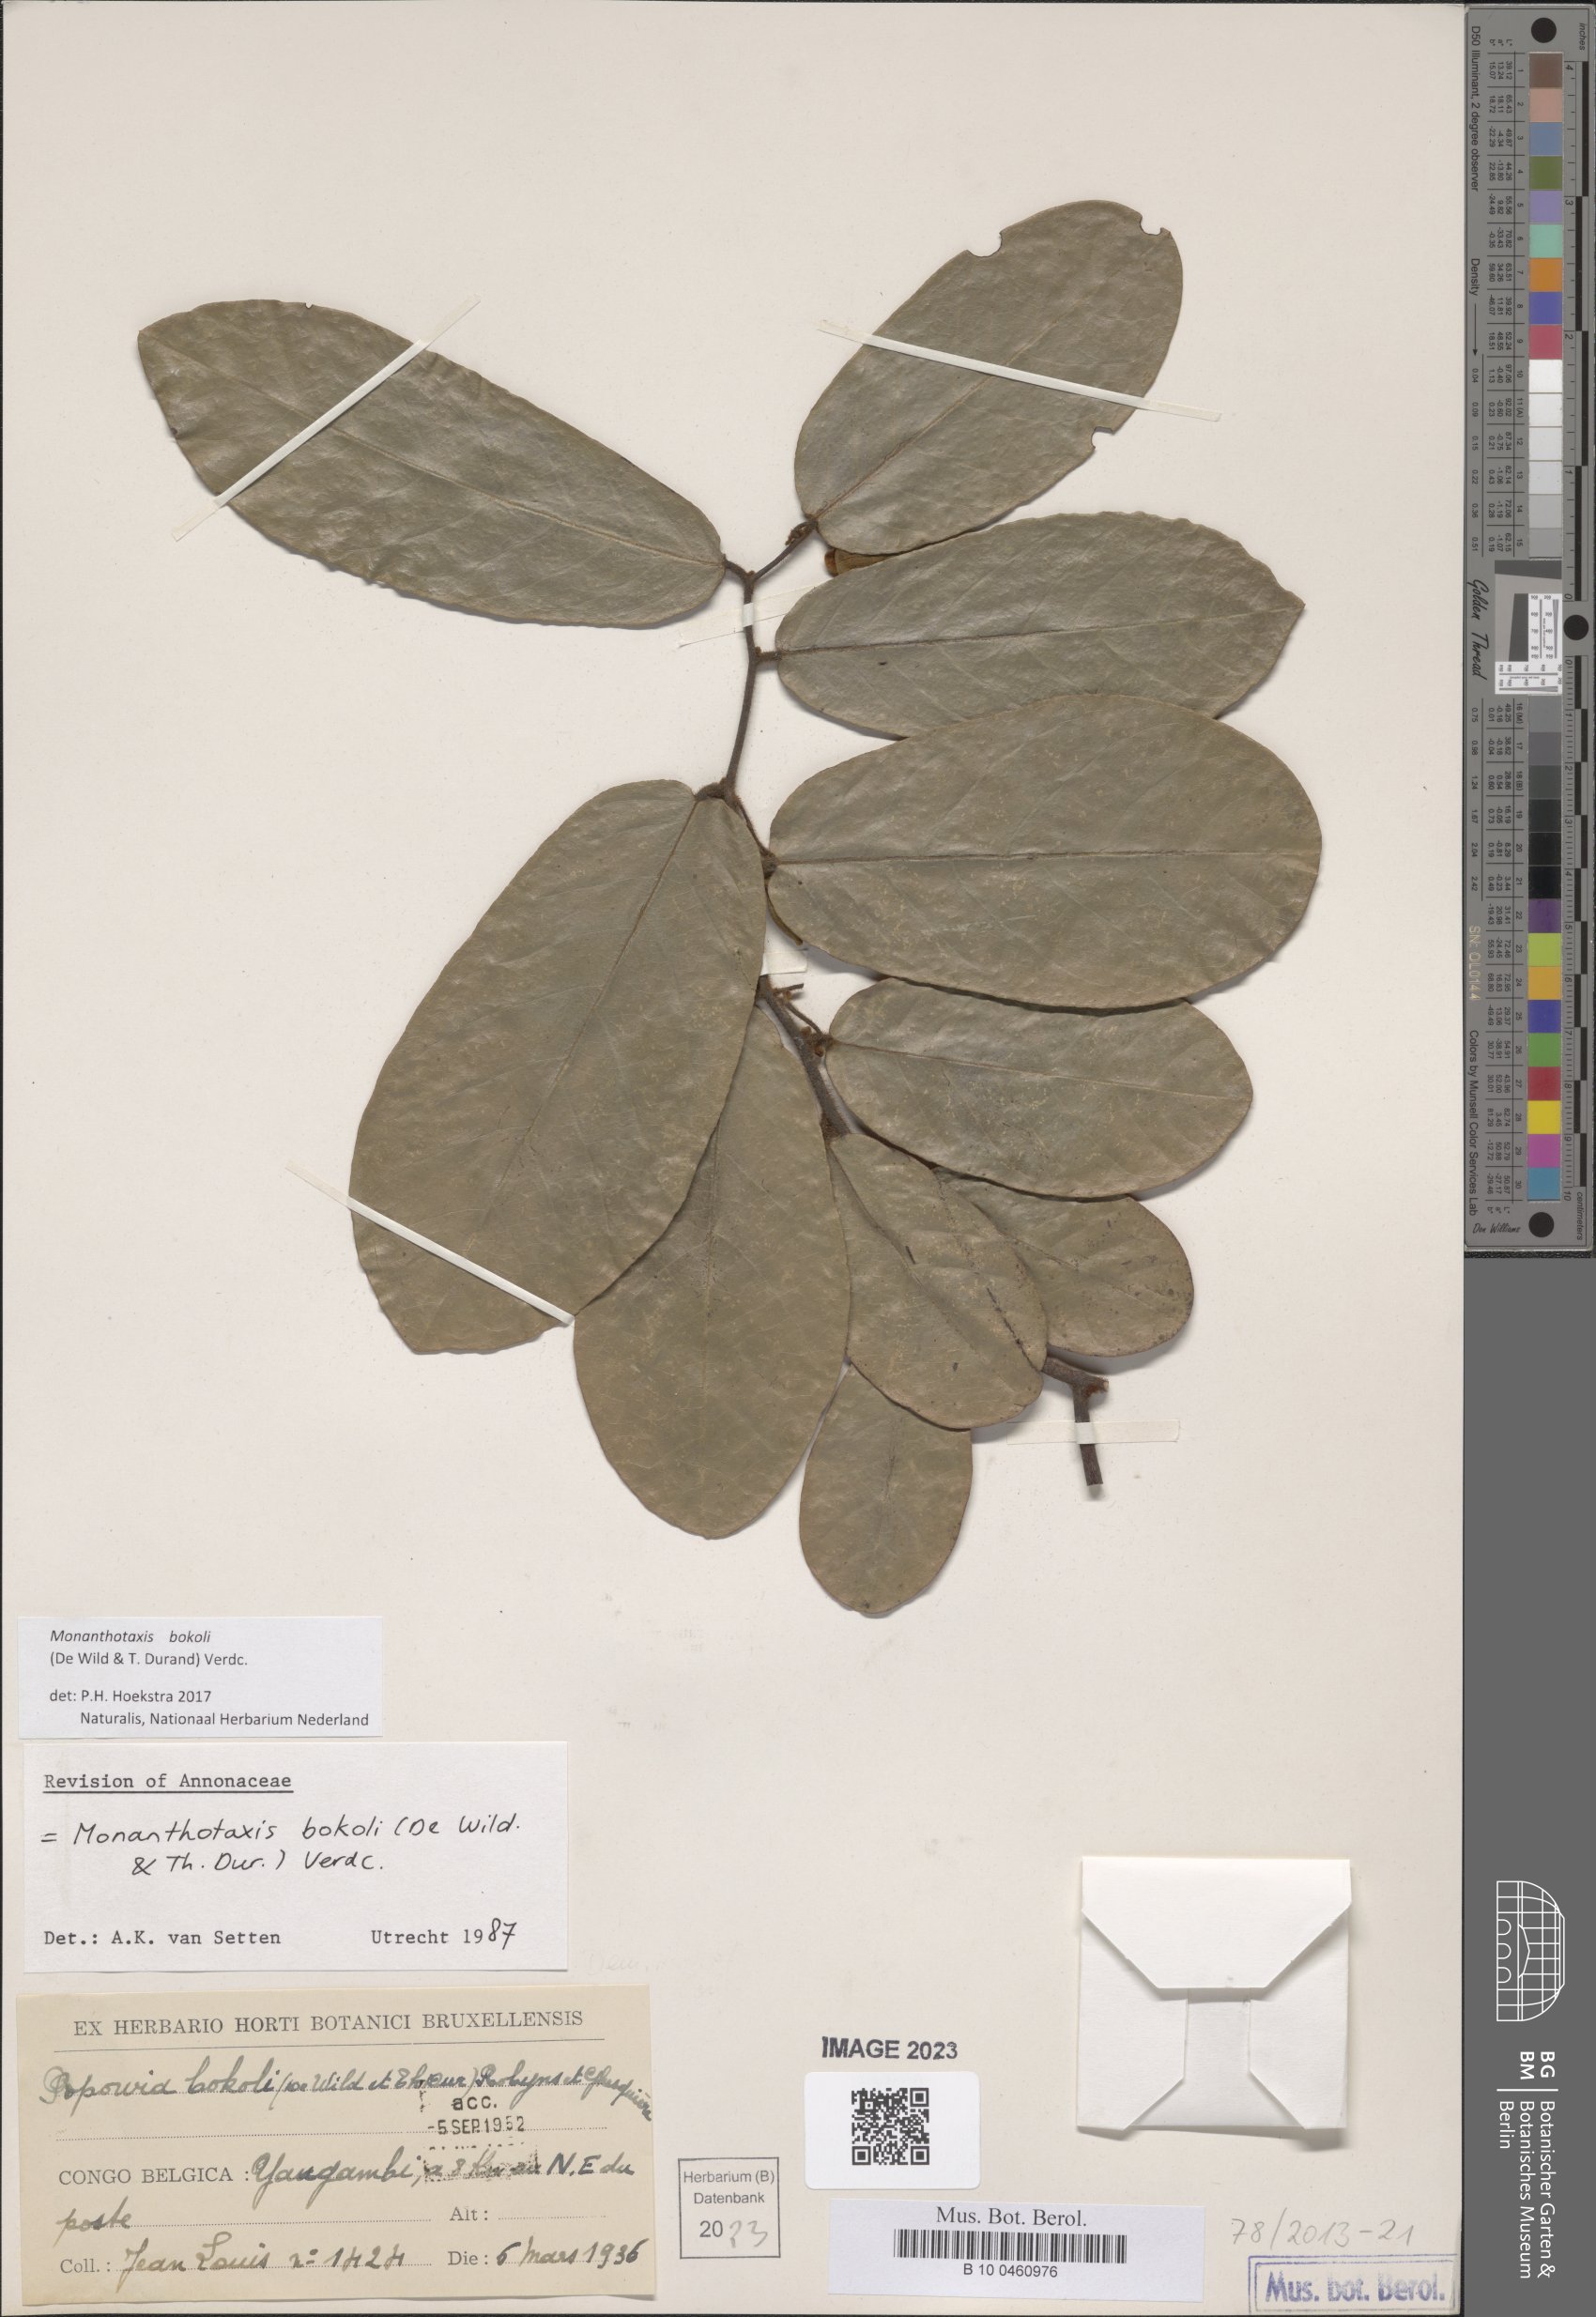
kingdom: Plantae
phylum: Tracheophyta
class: Magnoliopsida
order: Magnoliales
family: Annonaceae
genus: Monanthotaxis
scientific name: Monanthotaxis bokoli
